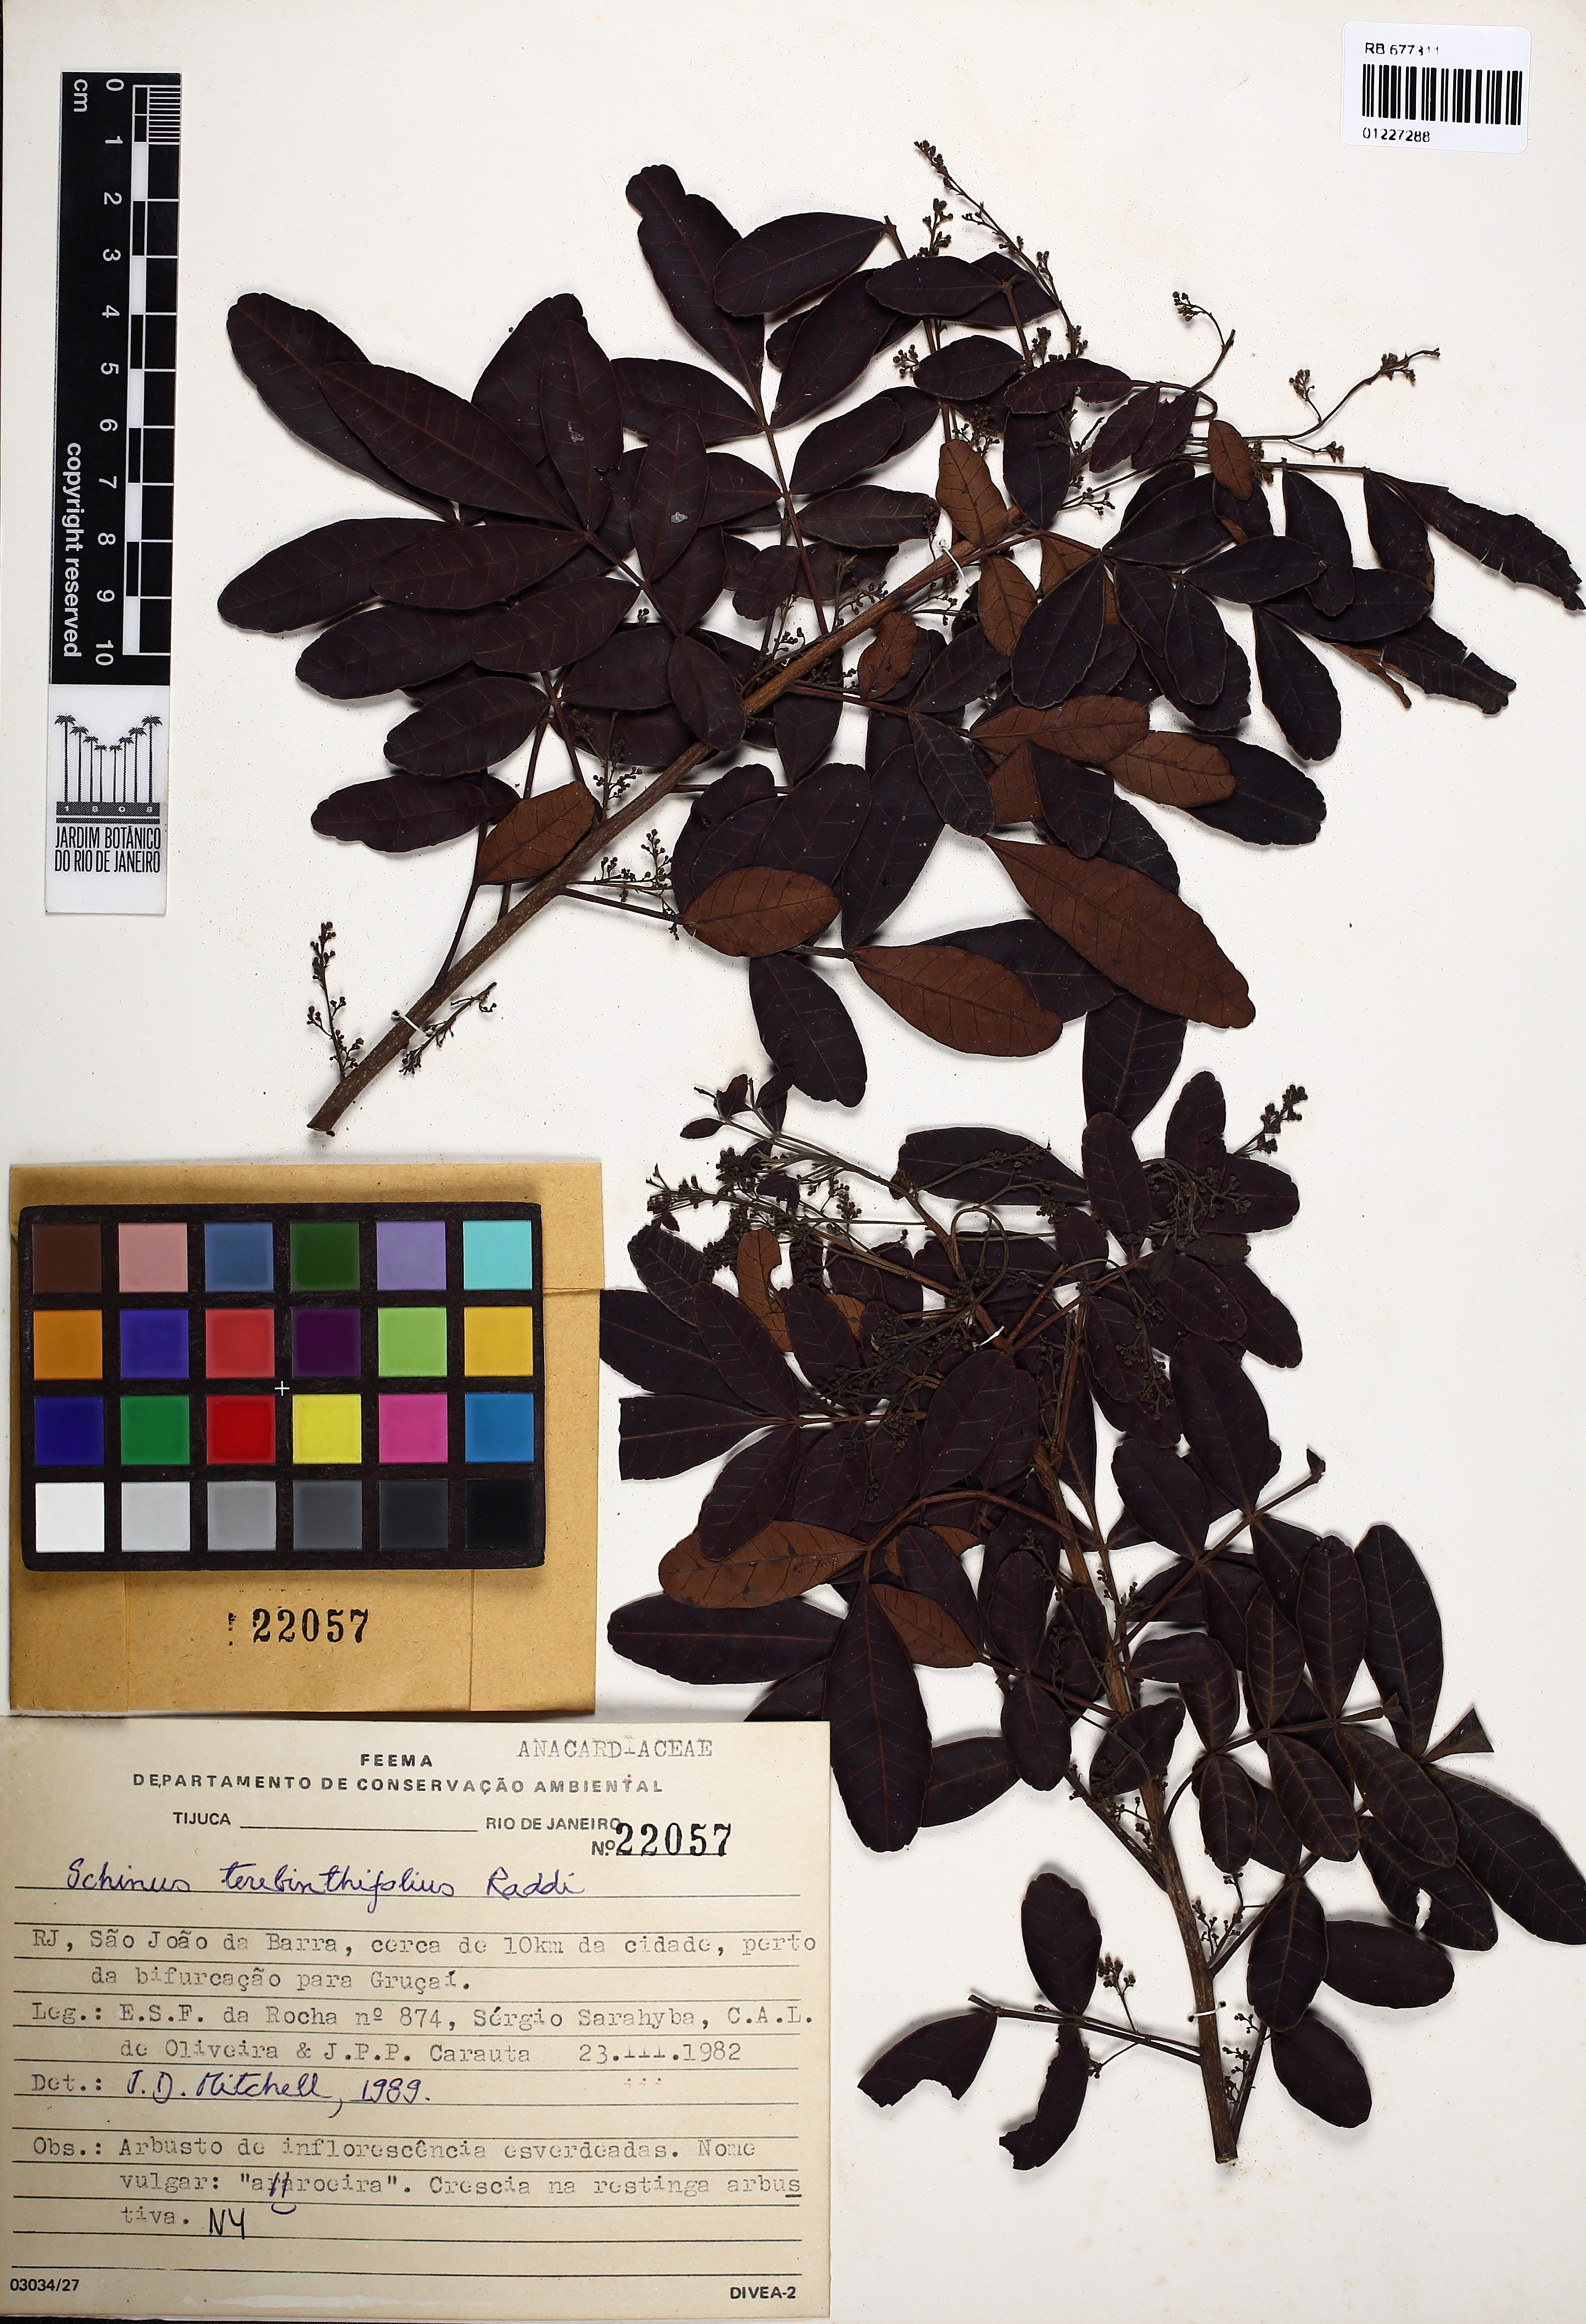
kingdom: Plantae
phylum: Tracheophyta
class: Magnoliopsida
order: Sapindales
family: Anacardiaceae
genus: Schinus
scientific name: Schinus terebinthifolia
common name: Brazilian peppertree
